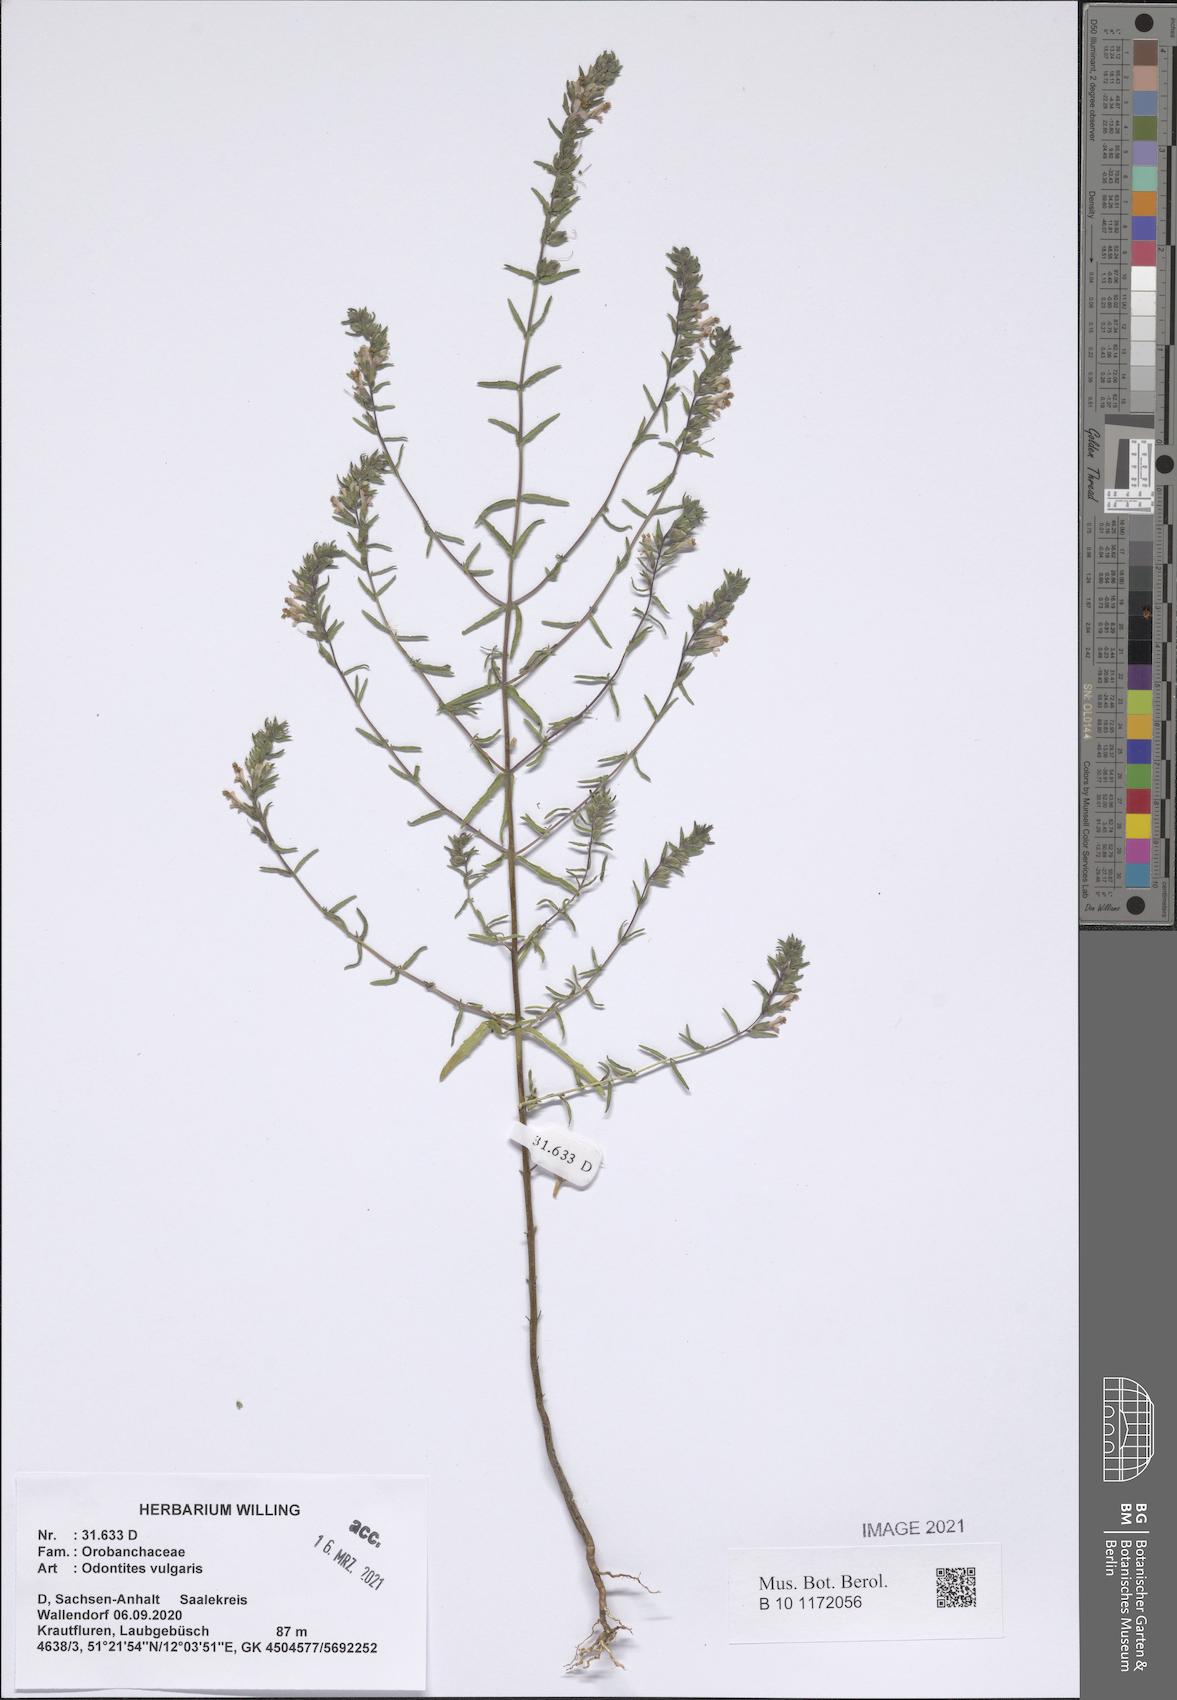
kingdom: Plantae
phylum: Tracheophyta
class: Magnoliopsida
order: Lamiales
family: Orobanchaceae
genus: Odontites
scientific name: Odontites vulgaris
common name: Broomrape
